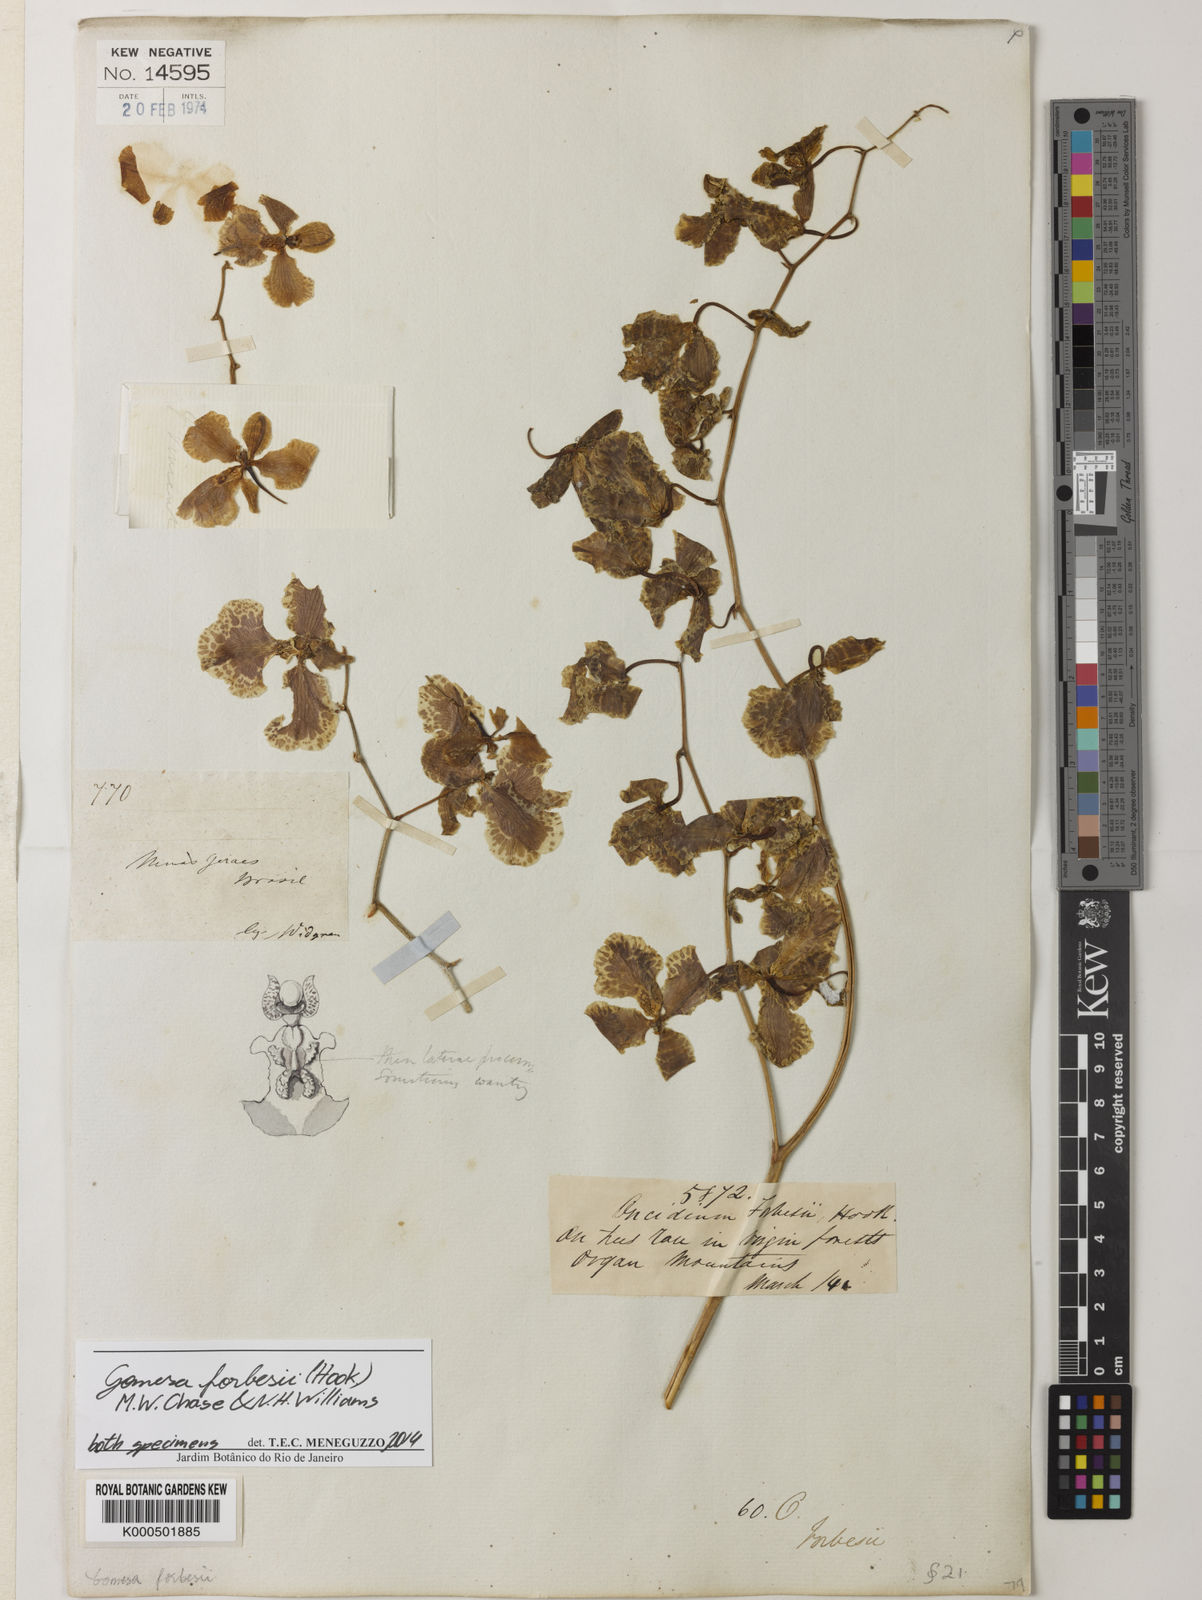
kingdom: Plantae
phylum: Tracheophyta
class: Liliopsida
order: Asparagales
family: Orchidaceae
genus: Gomesa
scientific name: Gomesa forbesii
